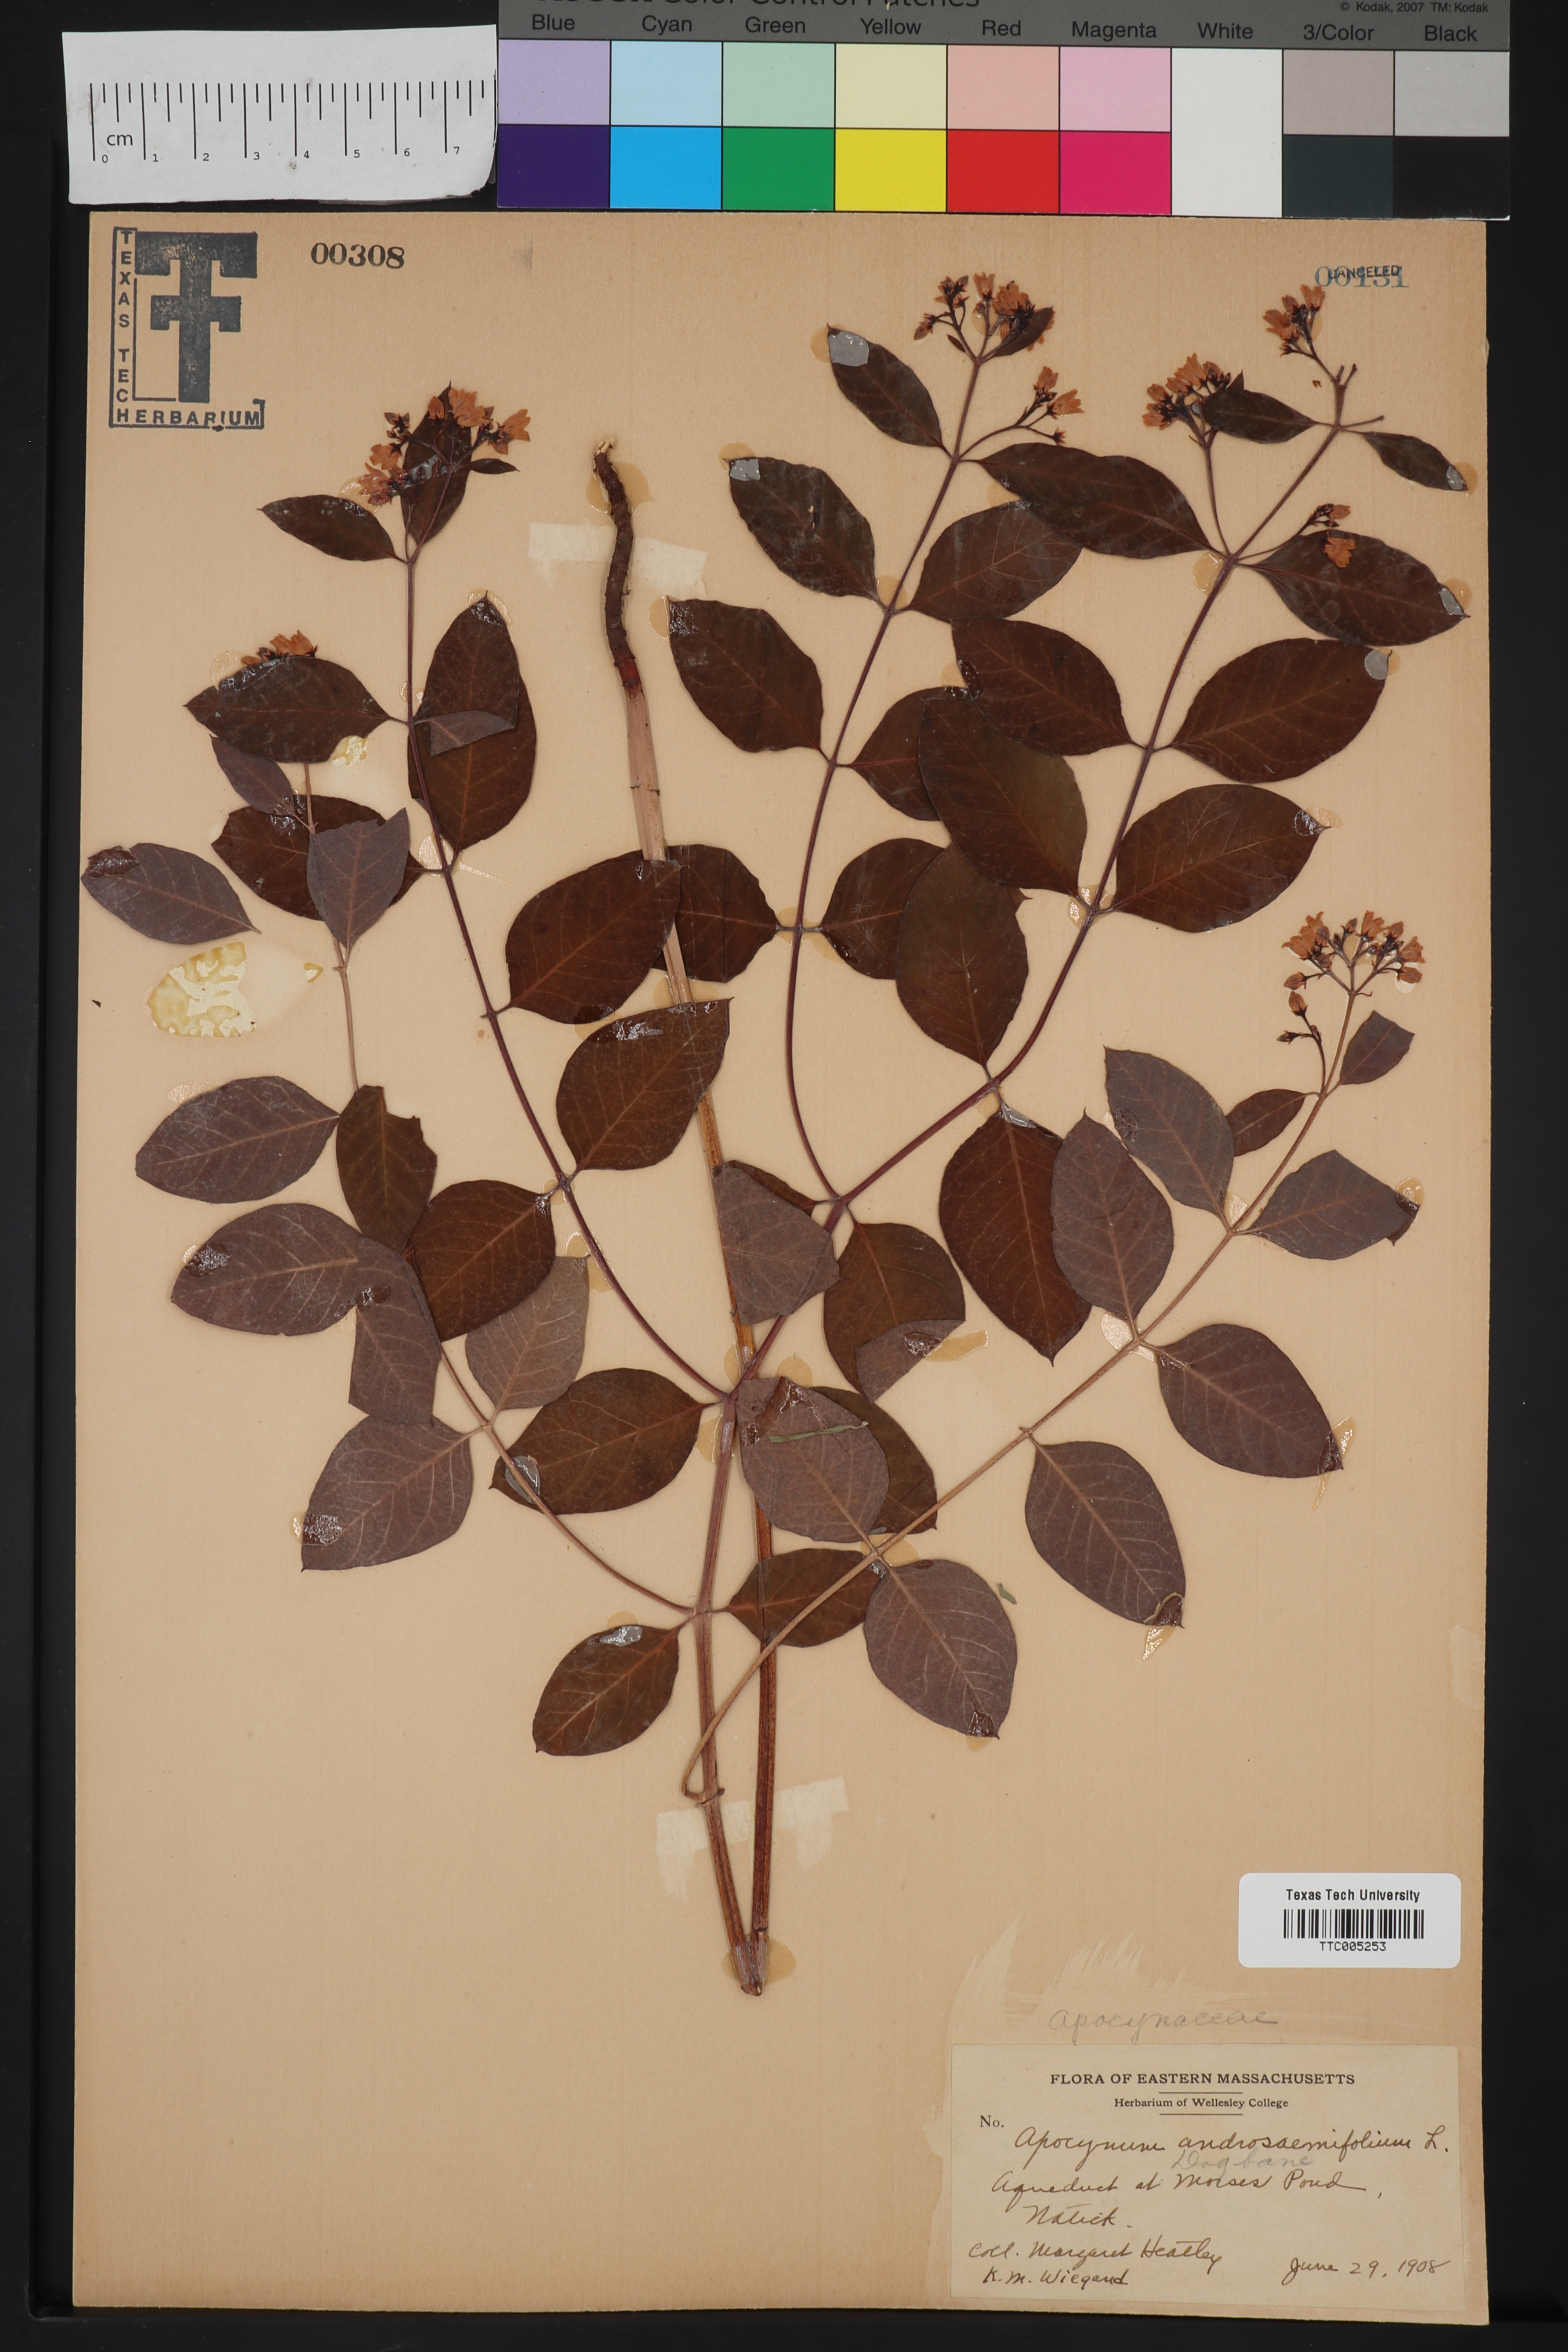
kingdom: Plantae
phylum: Tracheophyta
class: Magnoliopsida
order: Gentianales
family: Apocynaceae
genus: Apocynum
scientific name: Apocynum androsaemifolium
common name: Spreading dogbane
